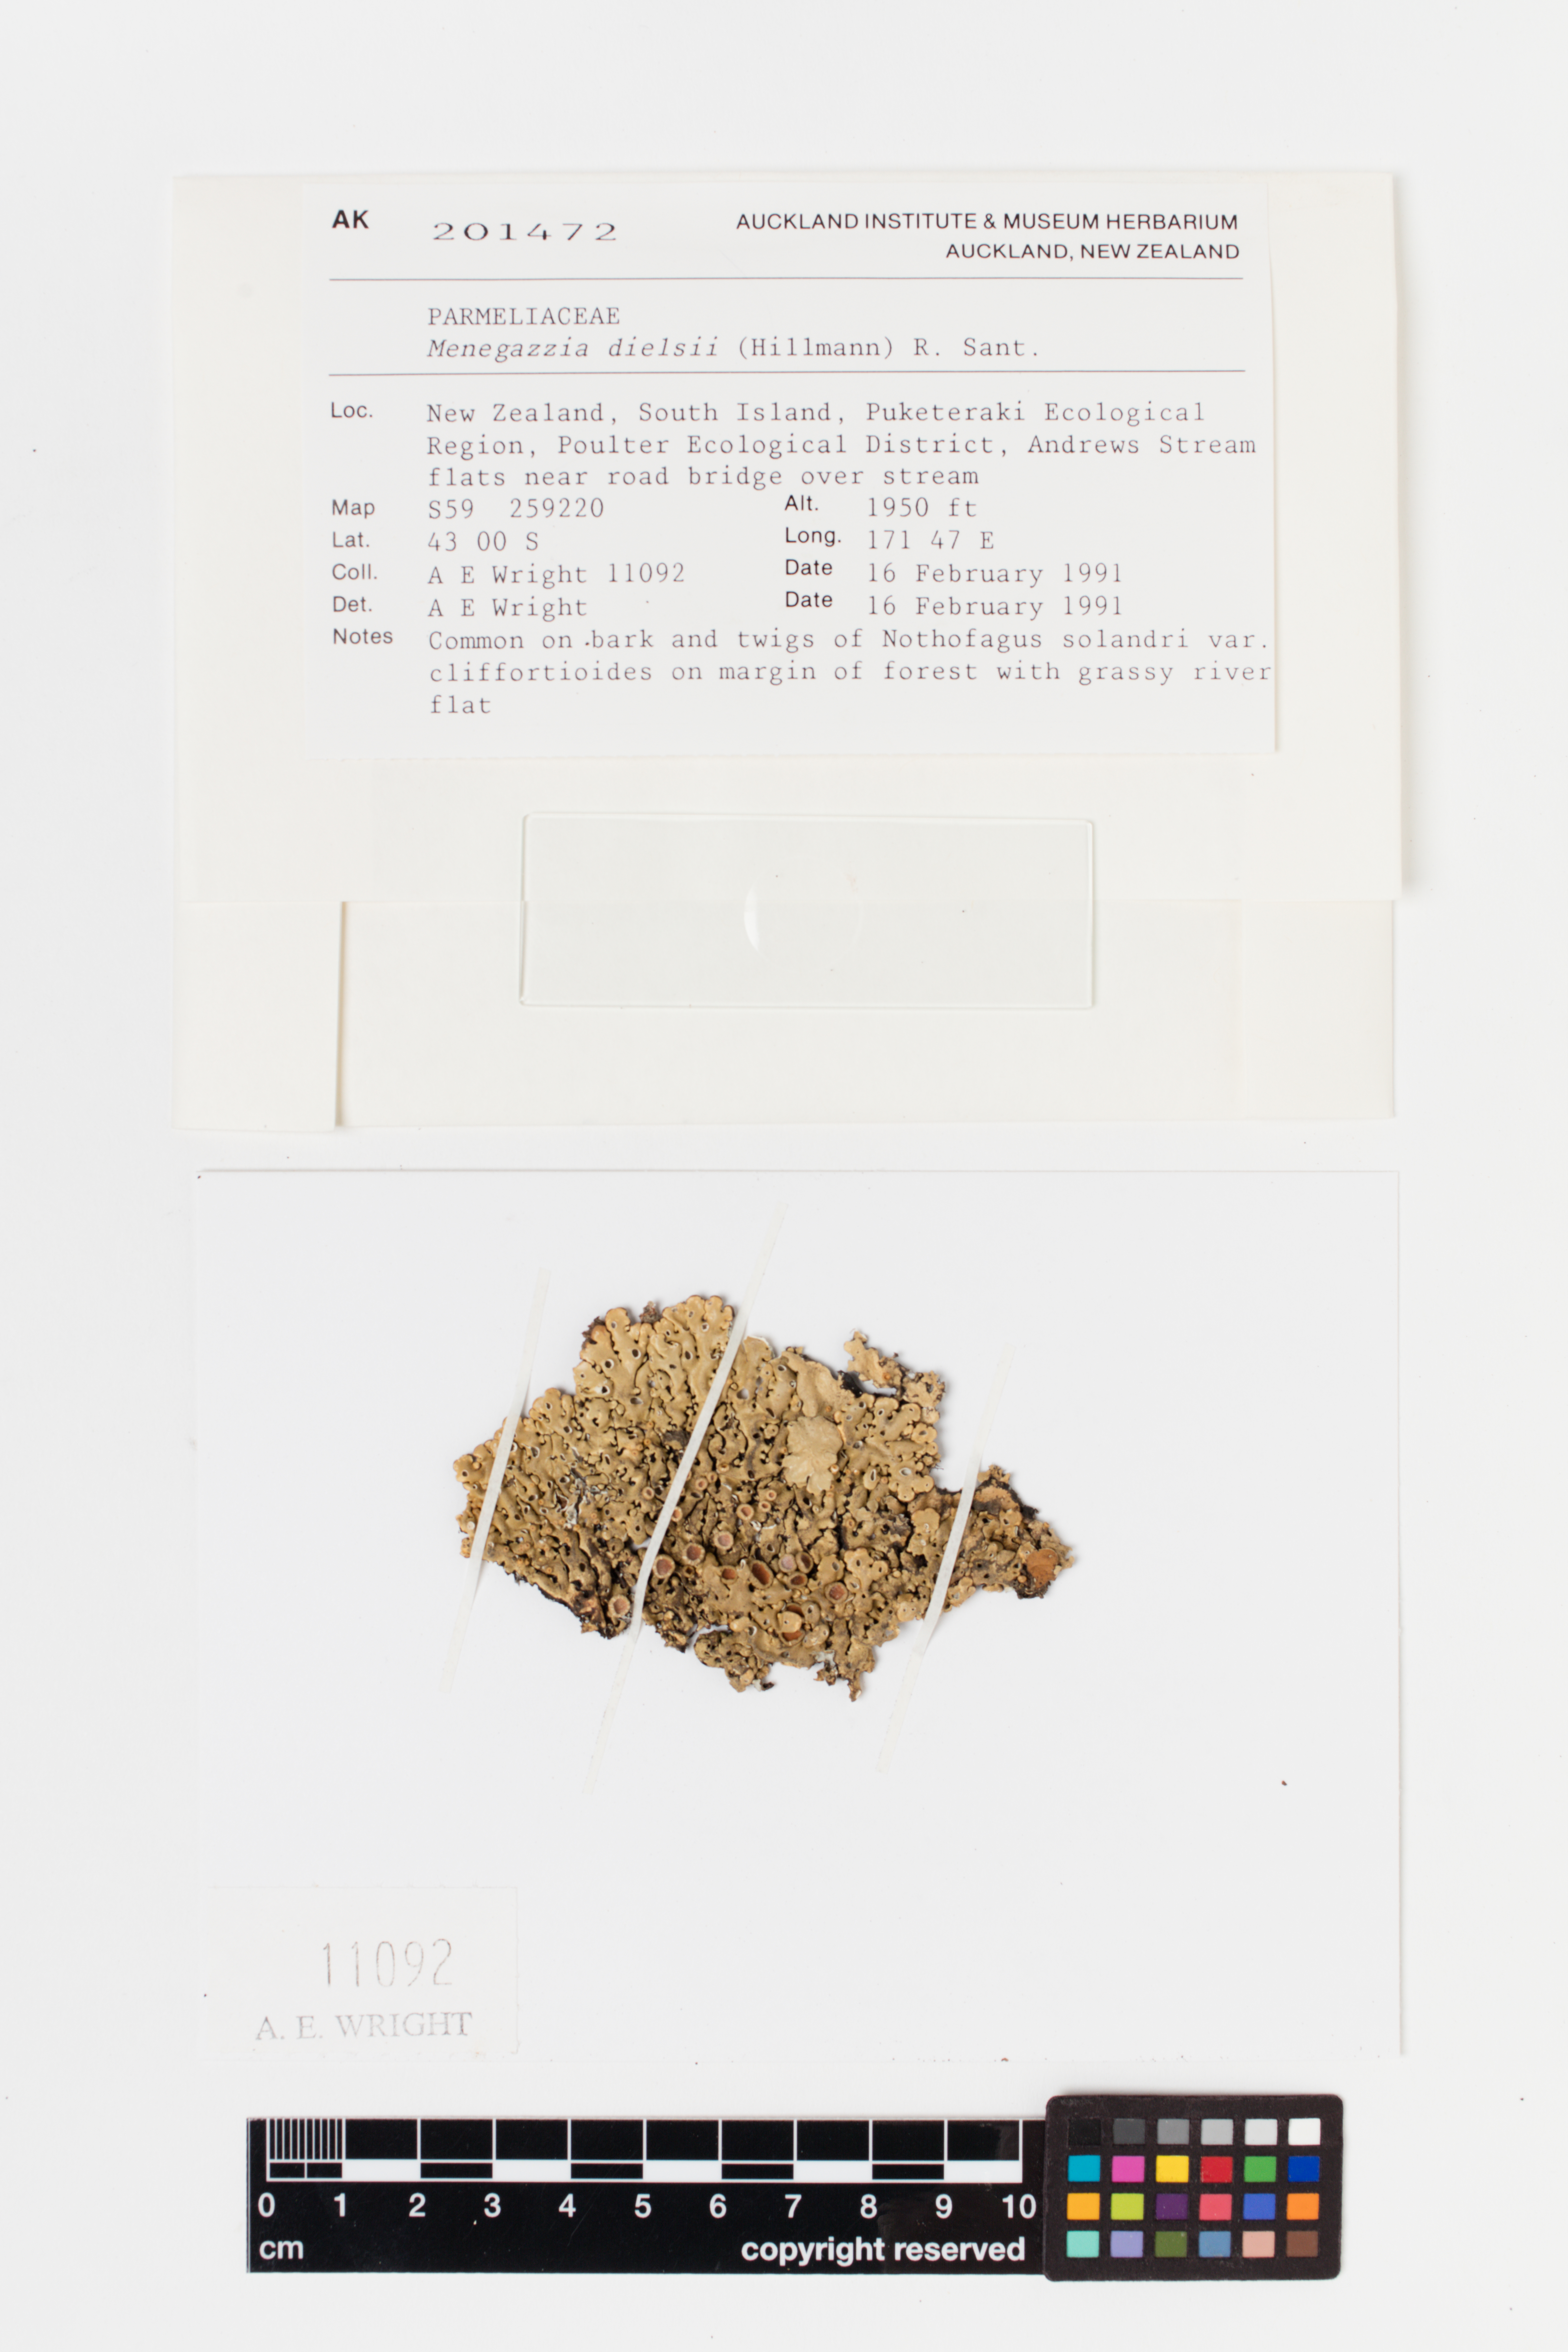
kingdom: Fungi
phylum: Ascomycota
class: Lecanoromycetes
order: Lecanorales
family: Parmeliaceae
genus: Menegazzia
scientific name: Menegazzia dielsii
